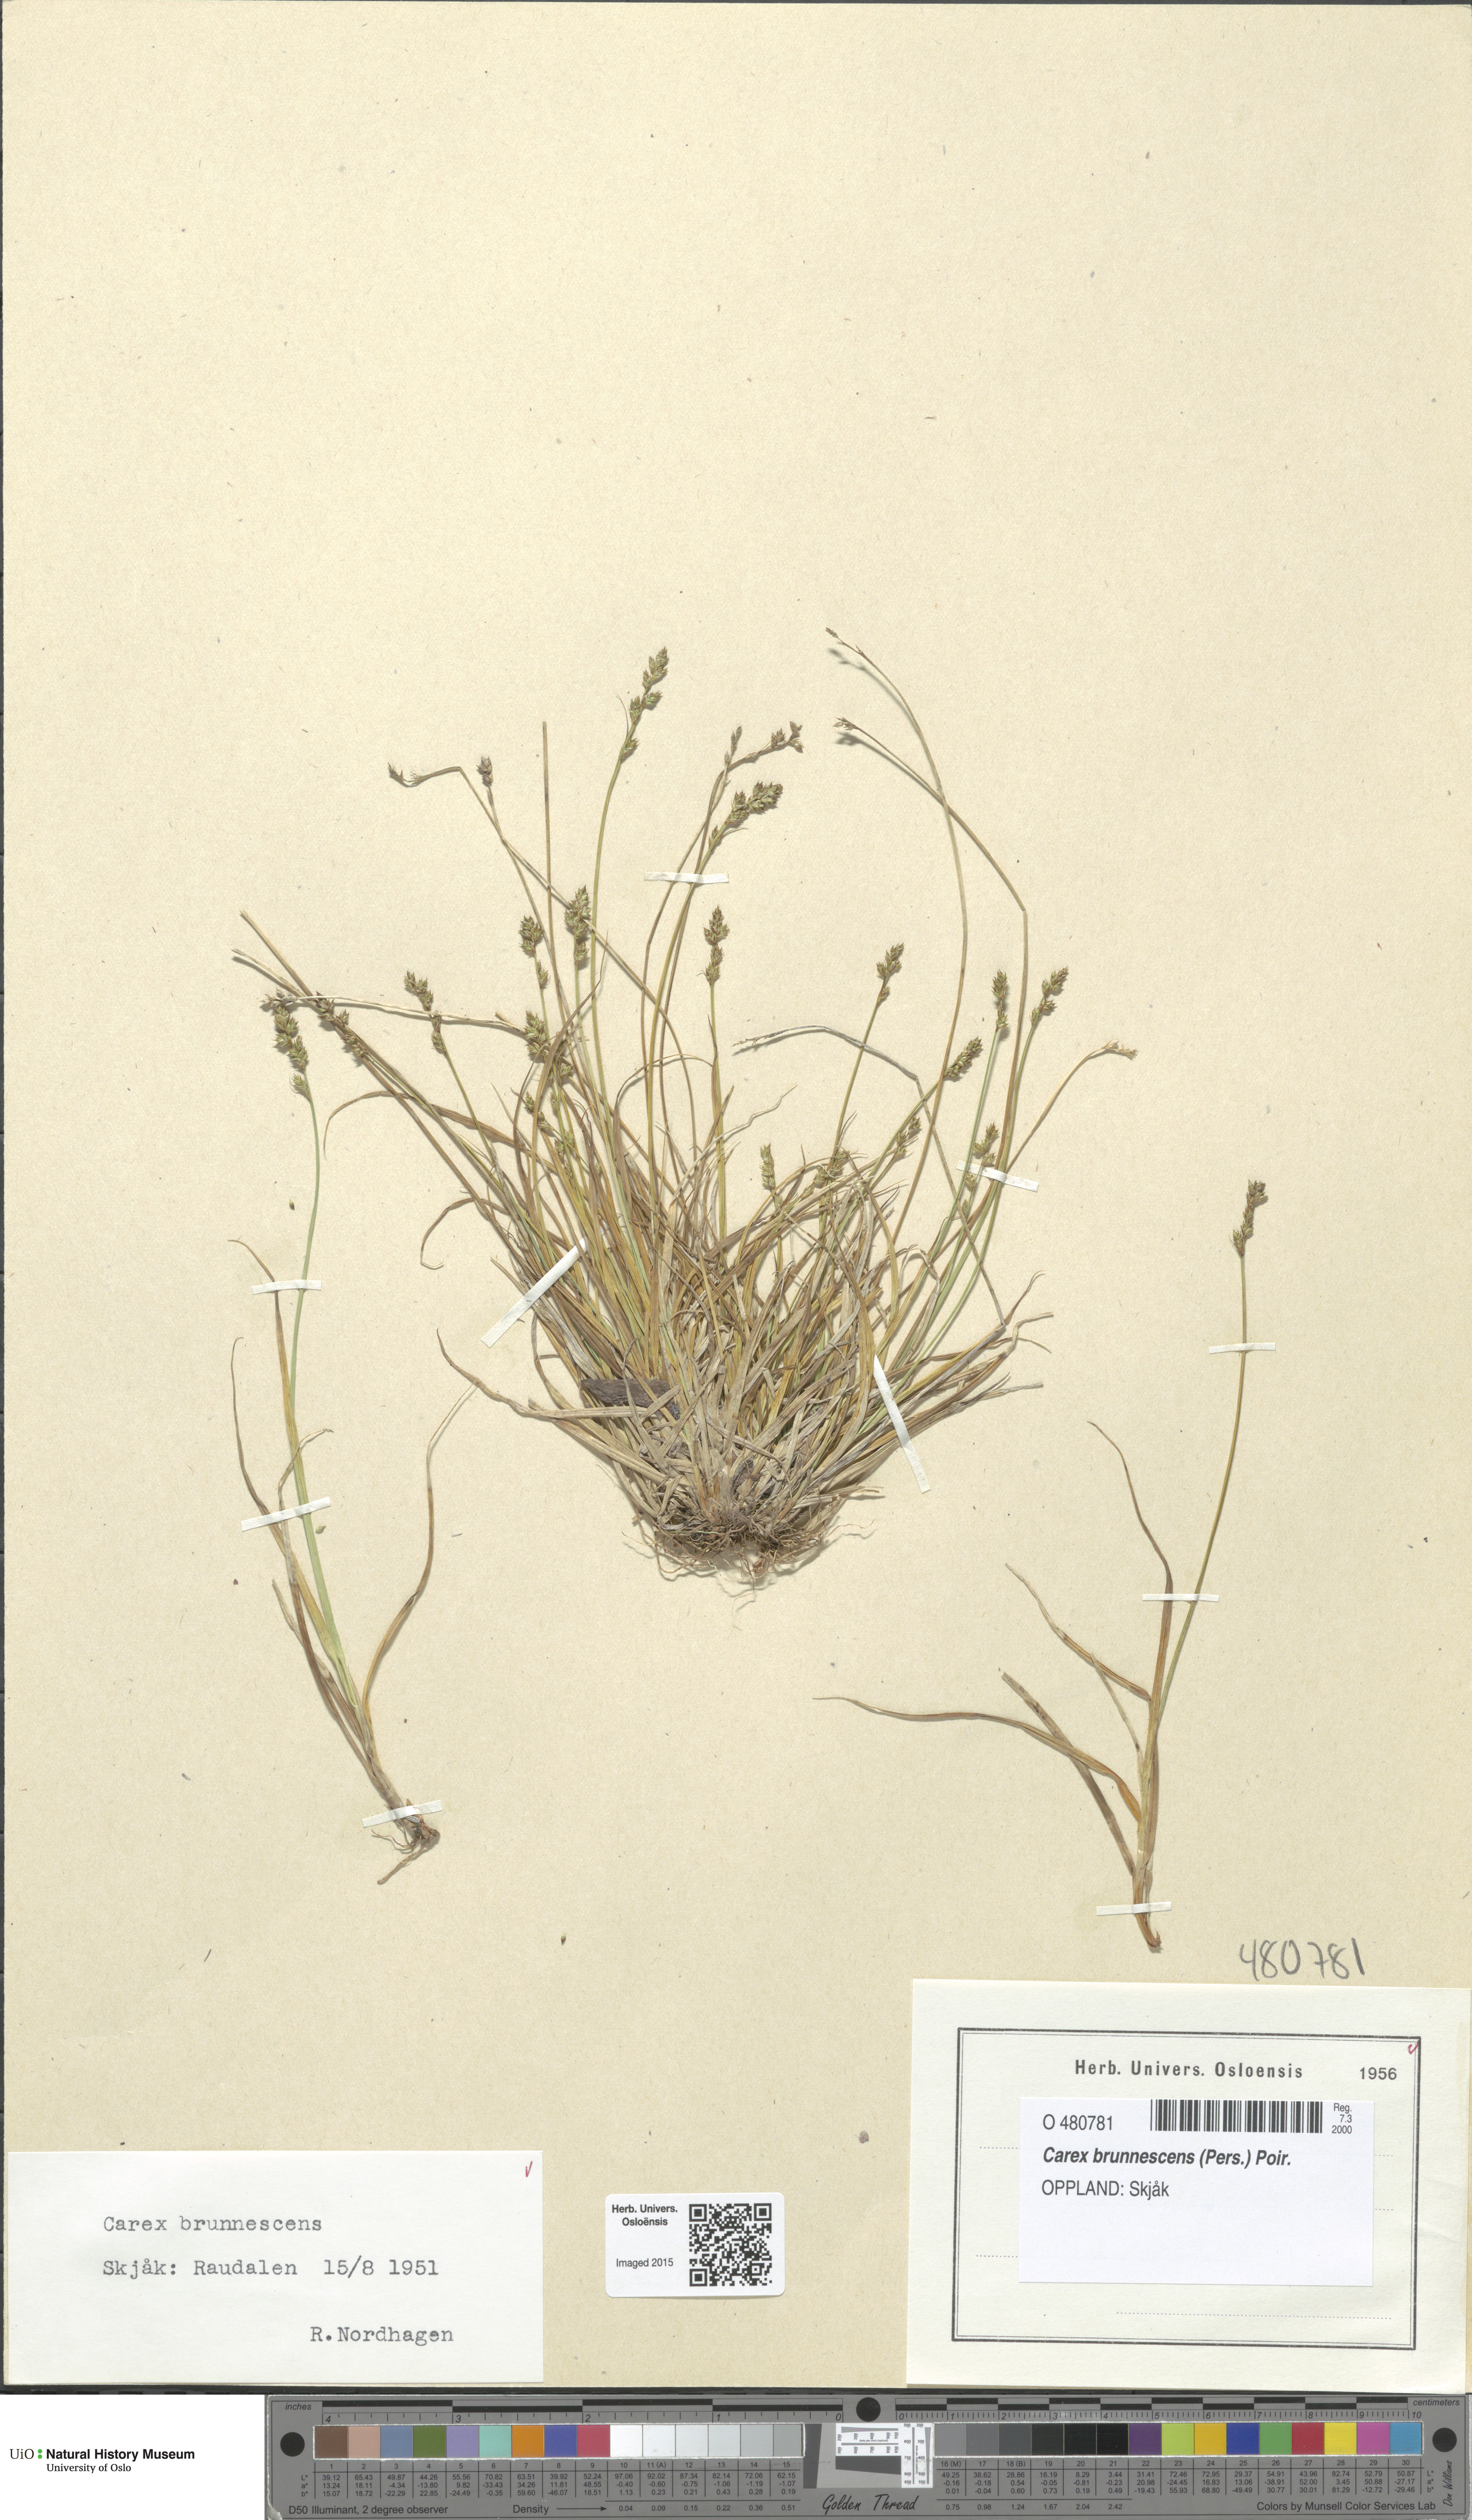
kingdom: Plantae
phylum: Tracheophyta
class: Liliopsida
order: Poales
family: Cyperaceae
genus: Carex
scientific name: Carex brunnescens
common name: Brown sedge
